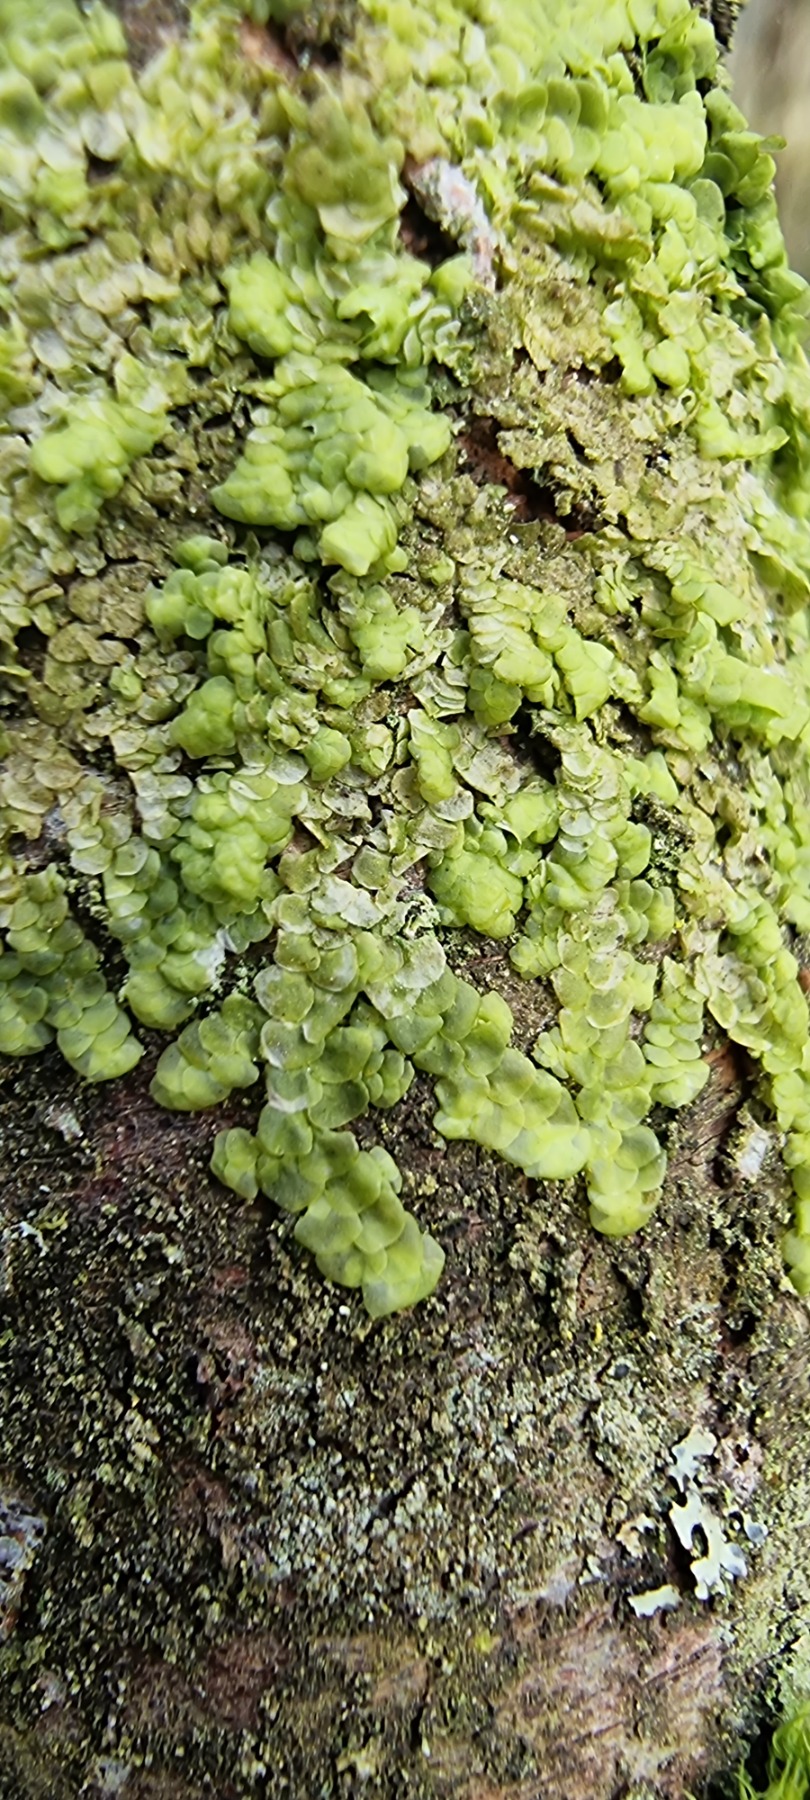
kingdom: Plantae
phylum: Marchantiophyta
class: Jungermanniopsida
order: Porellales
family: Radulaceae
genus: Radula
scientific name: Radula complanata
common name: Almindelig spartelmos
